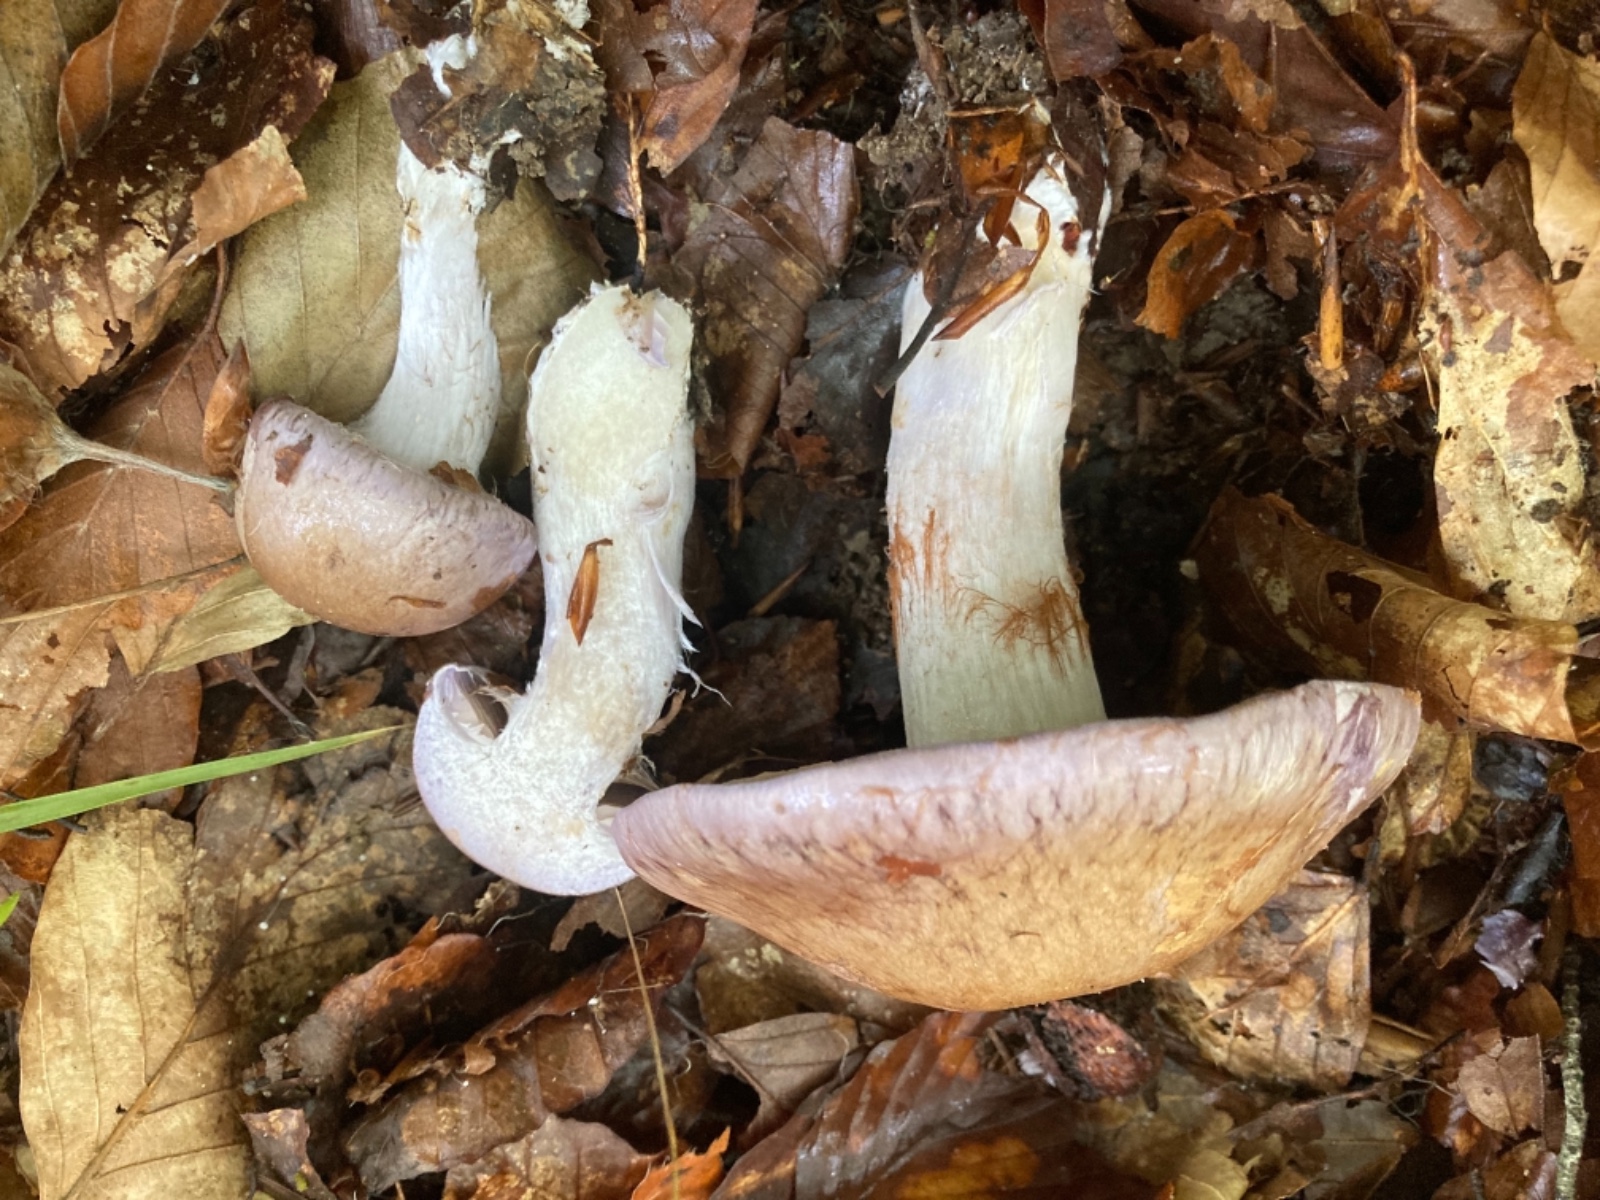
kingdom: Fungi
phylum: Basidiomycota
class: Agaricomycetes
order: Agaricales
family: Cortinariaceae
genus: Cortinarius
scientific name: Cortinarius largus
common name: violetrandet slørhat
